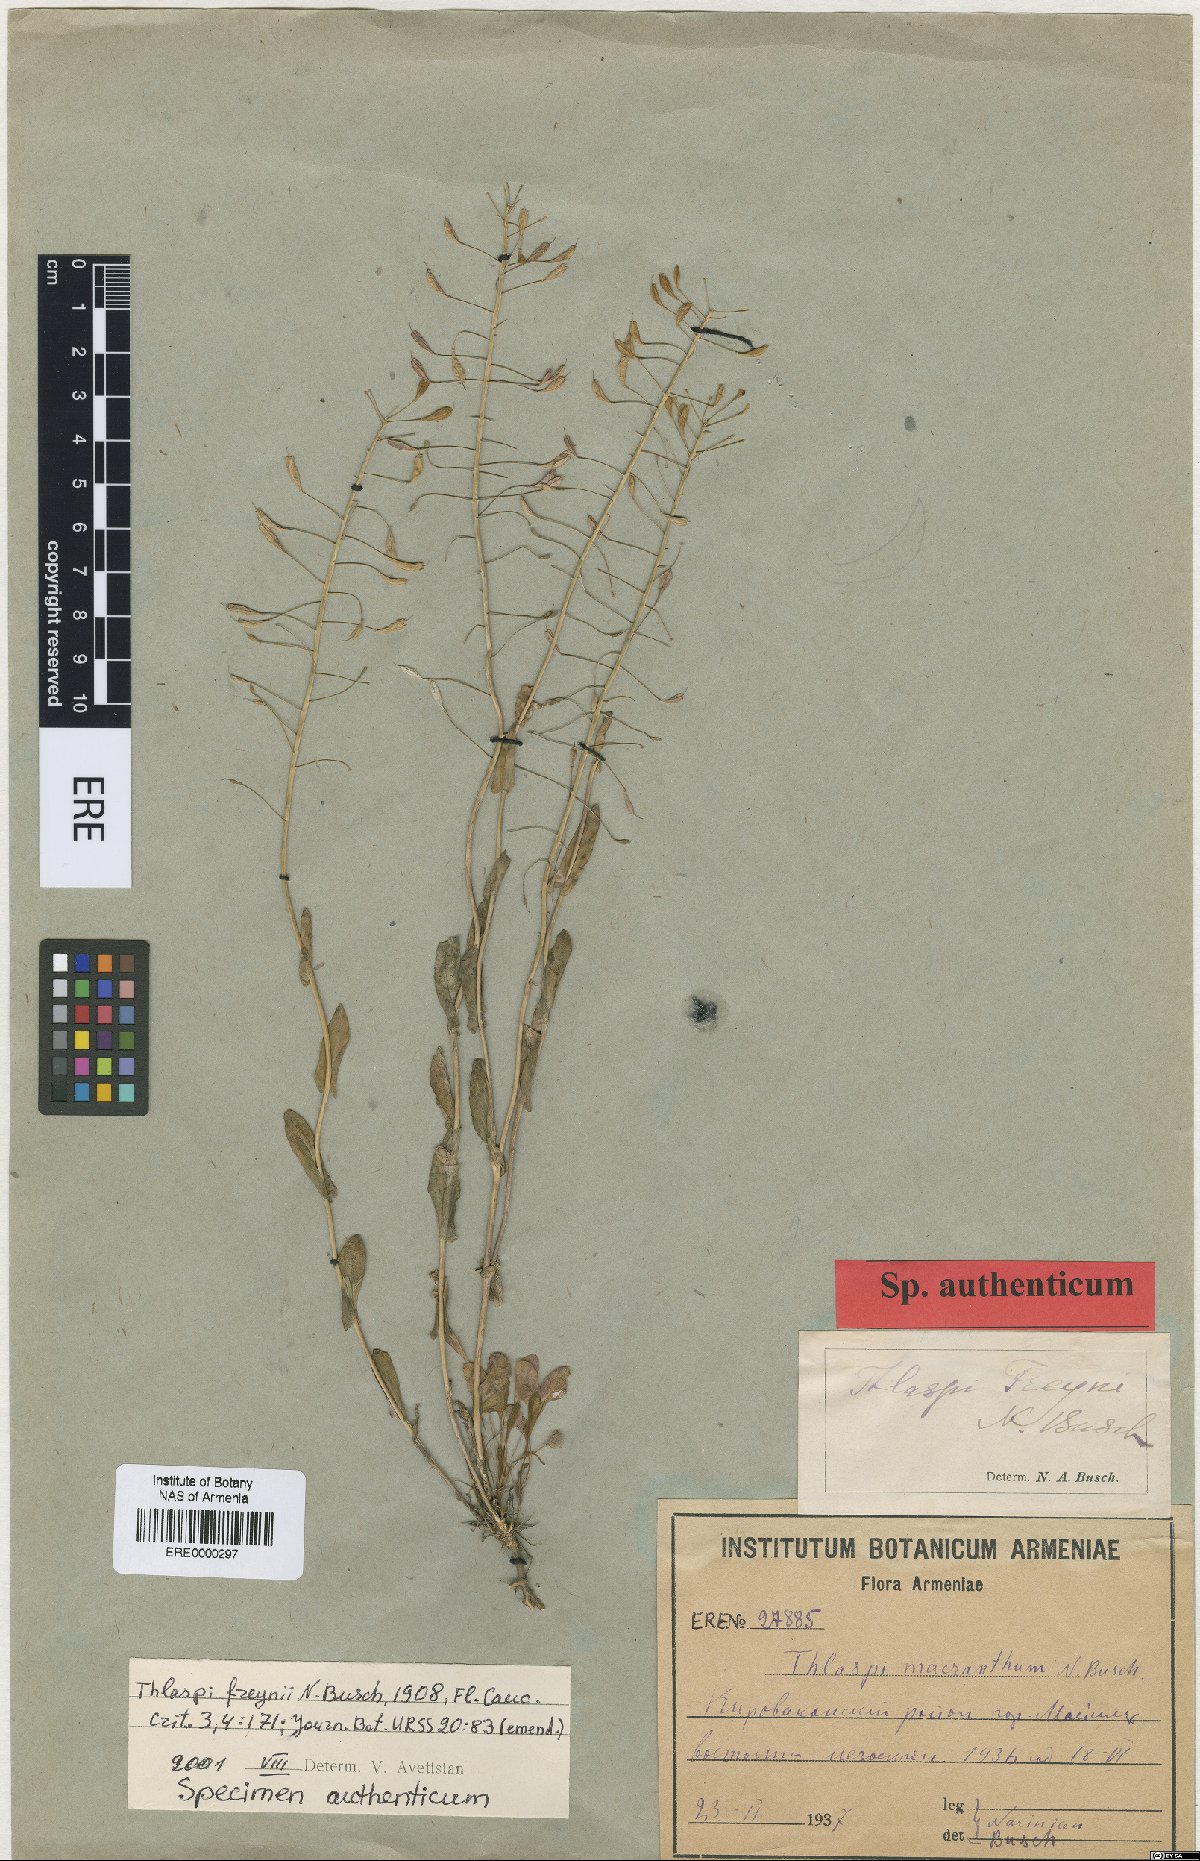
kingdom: Plantae
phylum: Tracheophyta
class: Magnoliopsida
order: Brassicales
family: Brassicaceae
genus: Noccaea
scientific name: Noccaea annua
